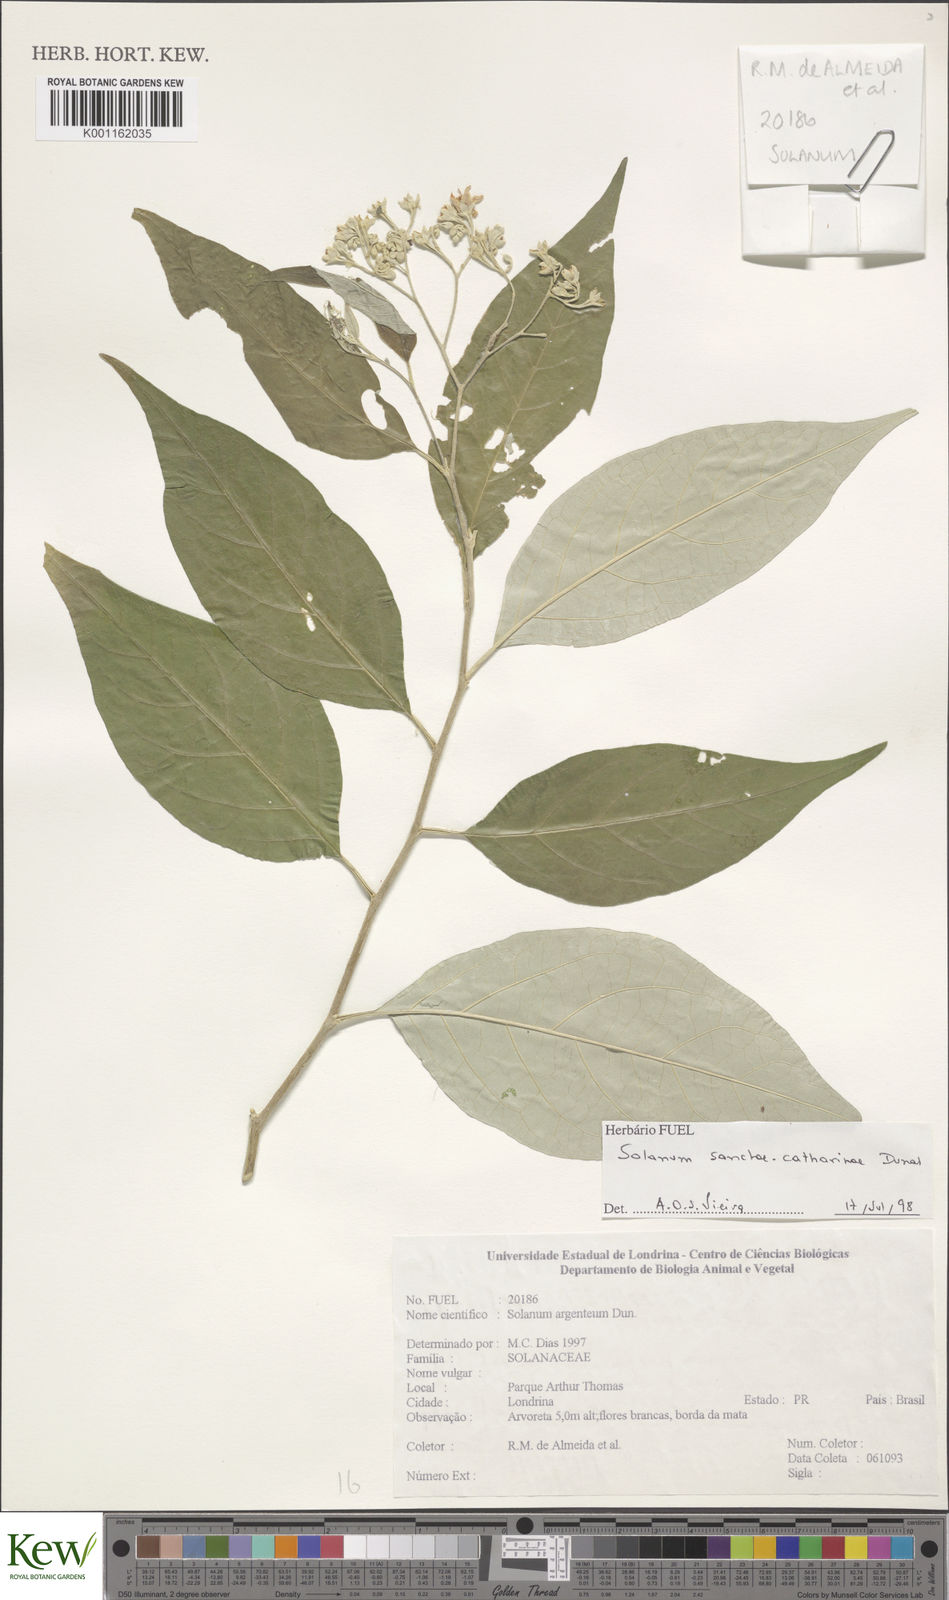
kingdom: Plantae
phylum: Tracheophyta
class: Magnoliopsida
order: Solanales
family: Solanaceae
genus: Solanum
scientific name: Solanum sanctae-catharinae
